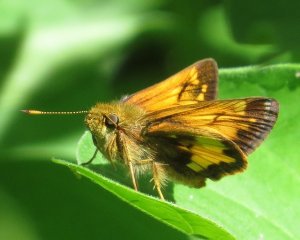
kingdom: Animalia
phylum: Arthropoda
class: Insecta
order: Lepidoptera
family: Hesperiidae
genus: Lon
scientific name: Lon hobomok
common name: Hobomok Skipper
